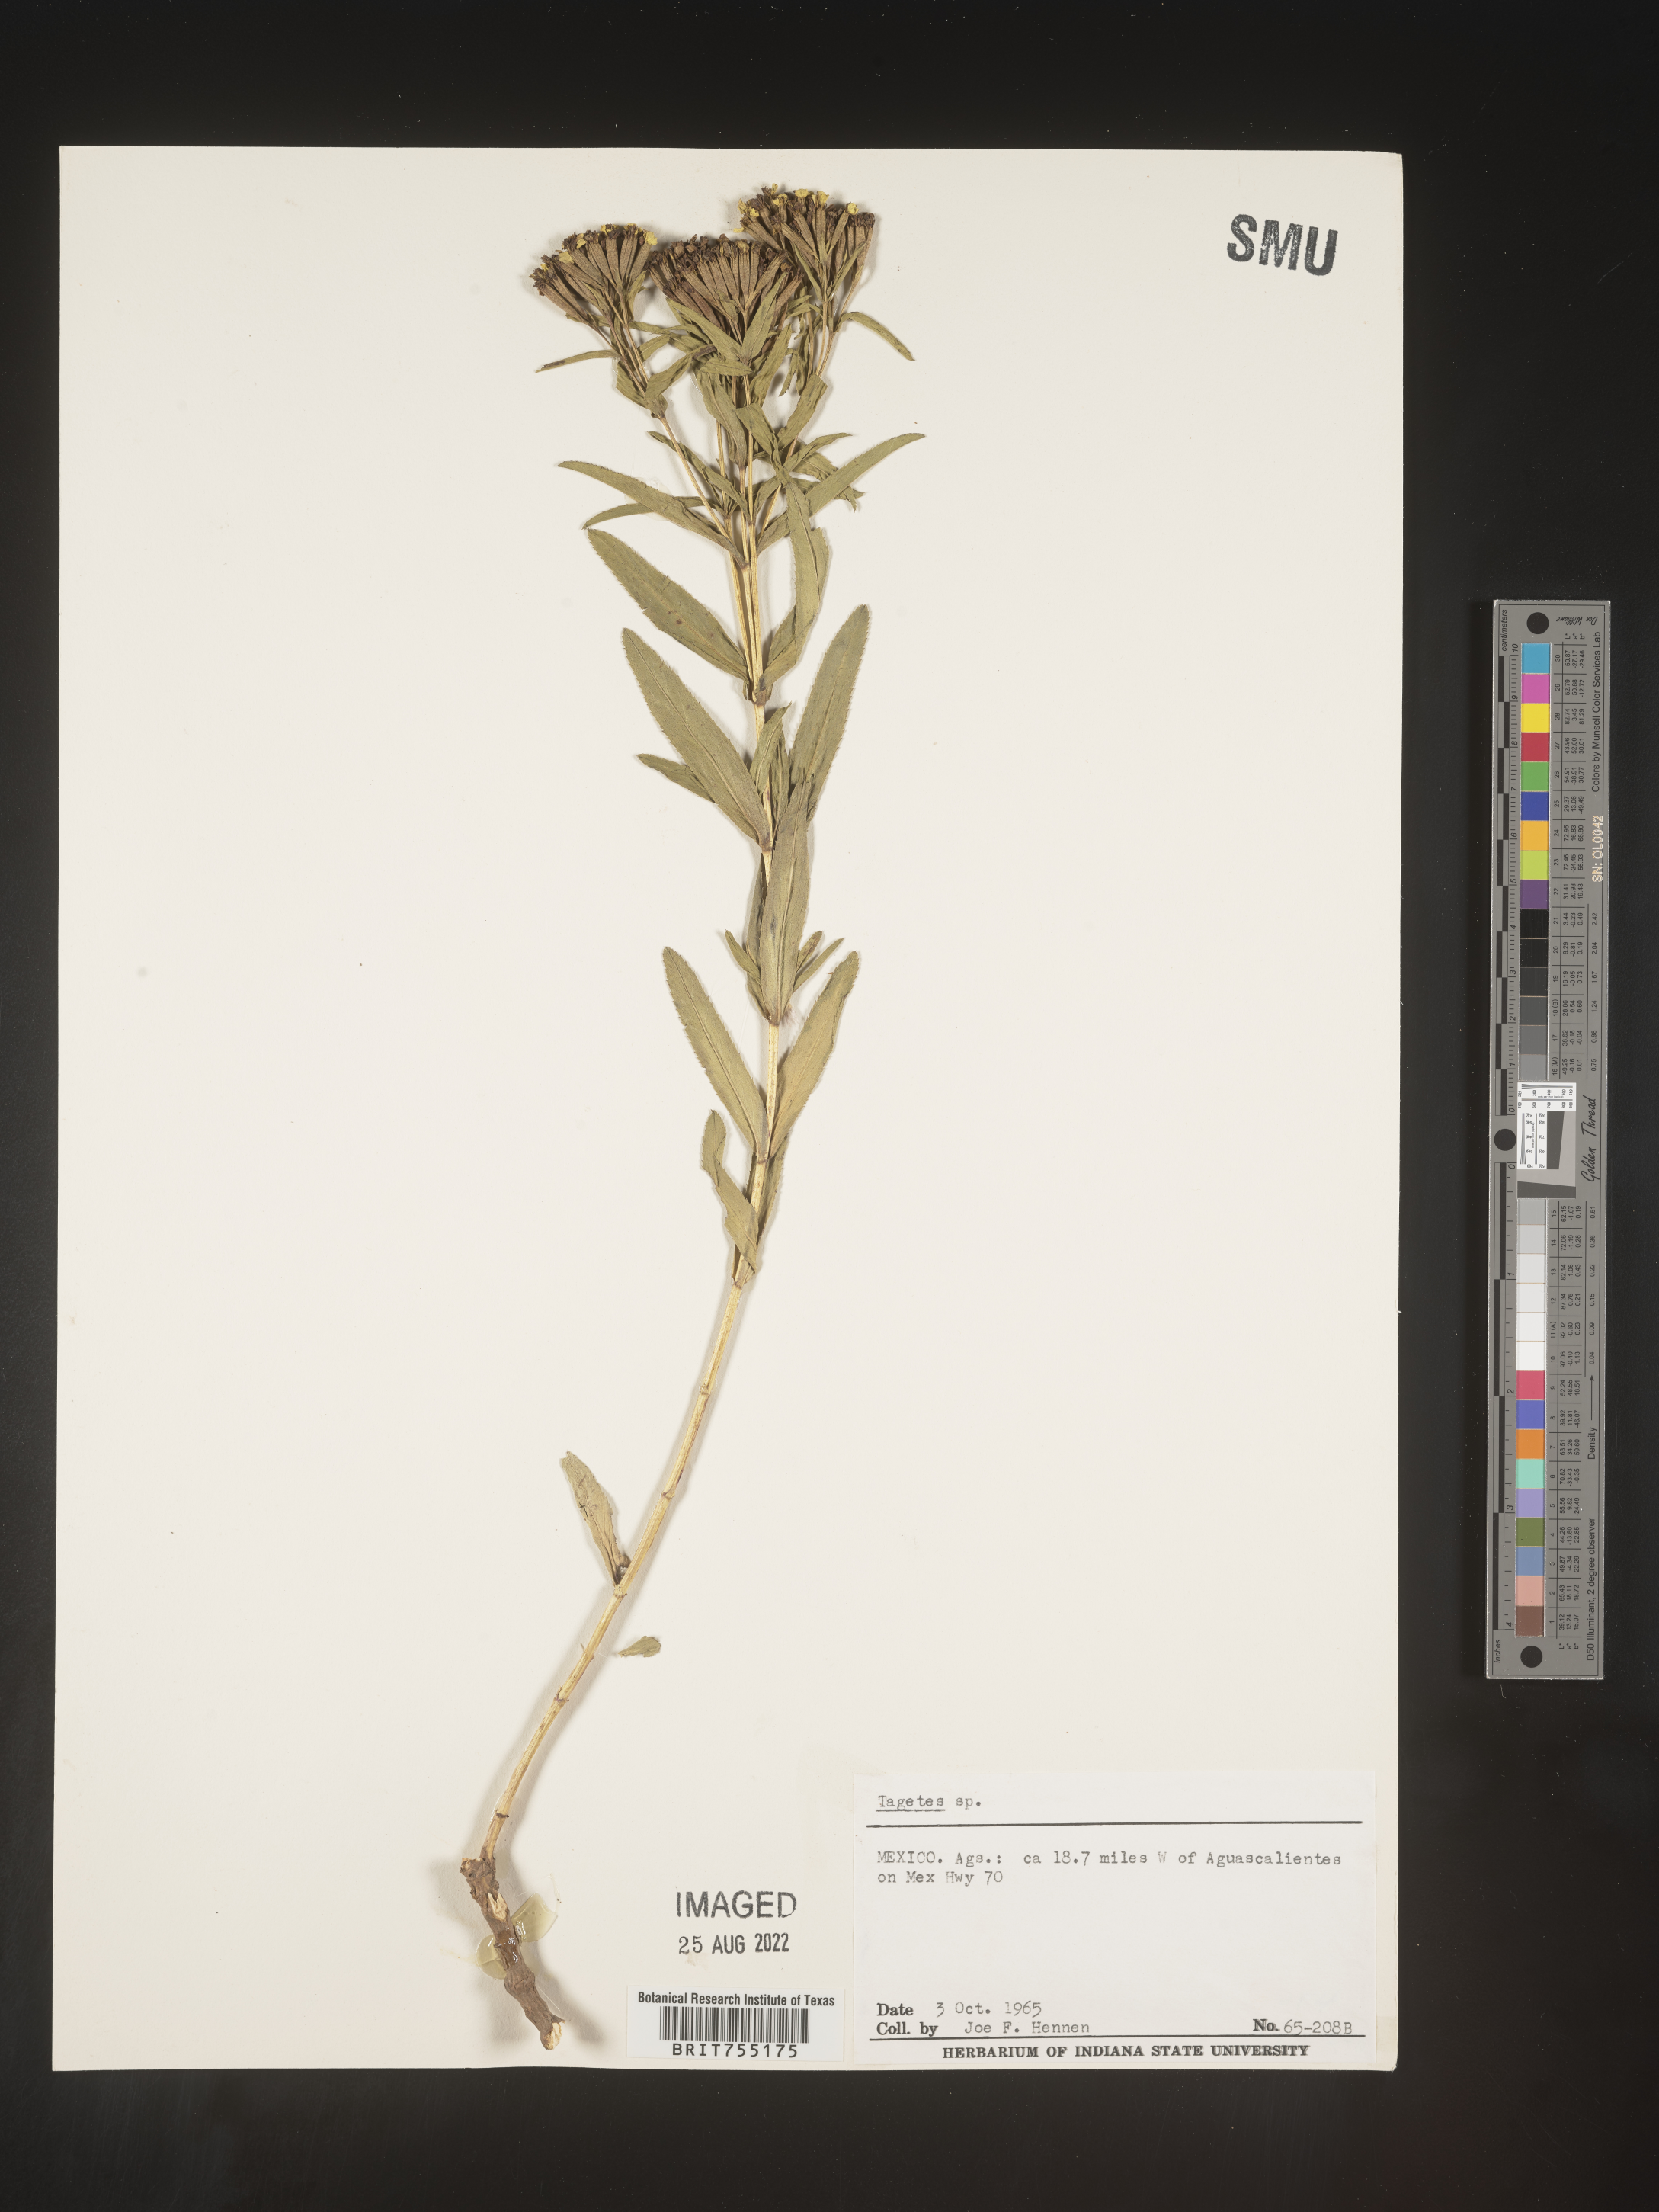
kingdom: Plantae
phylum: Tracheophyta
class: Magnoliopsida
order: Asterales
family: Asteraceae
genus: Tagetes
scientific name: Tagetes
